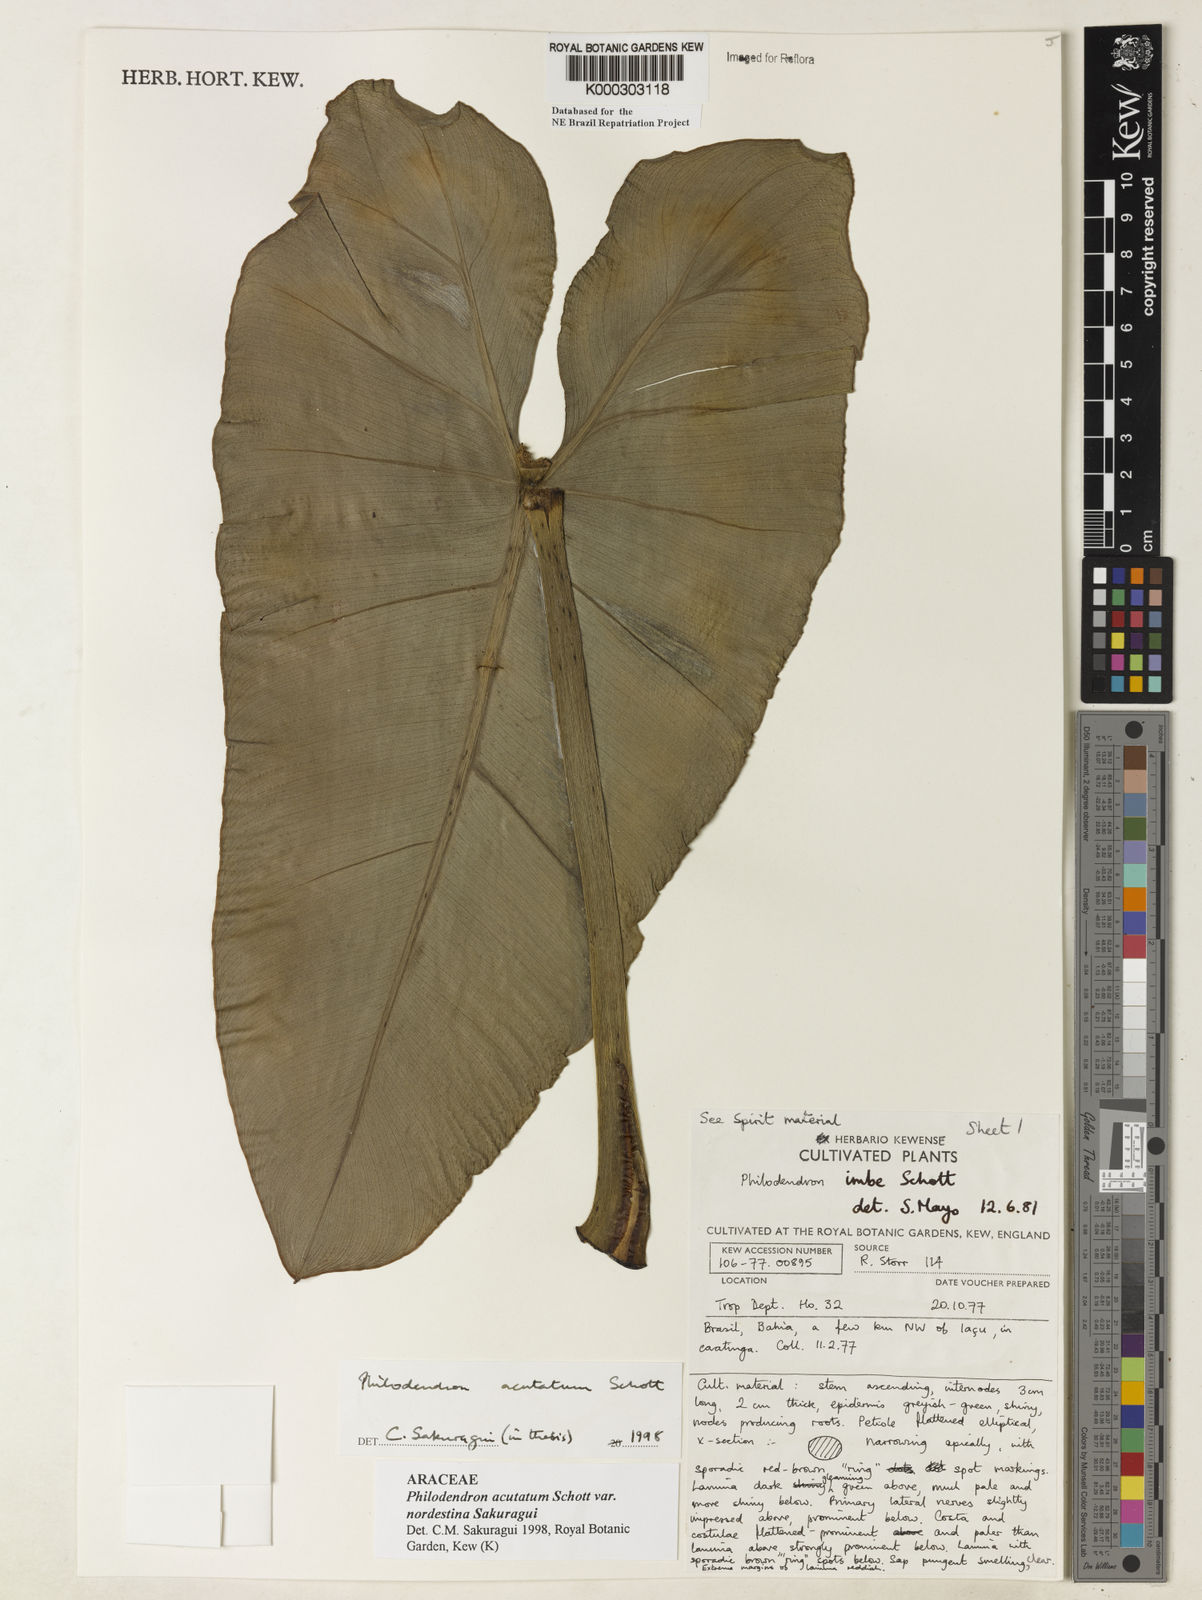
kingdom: Plantae
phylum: Tracheophyta
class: Liliopsida
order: Alismatales
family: Araceae
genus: Philodendron
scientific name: Philodendron quinquenervium
